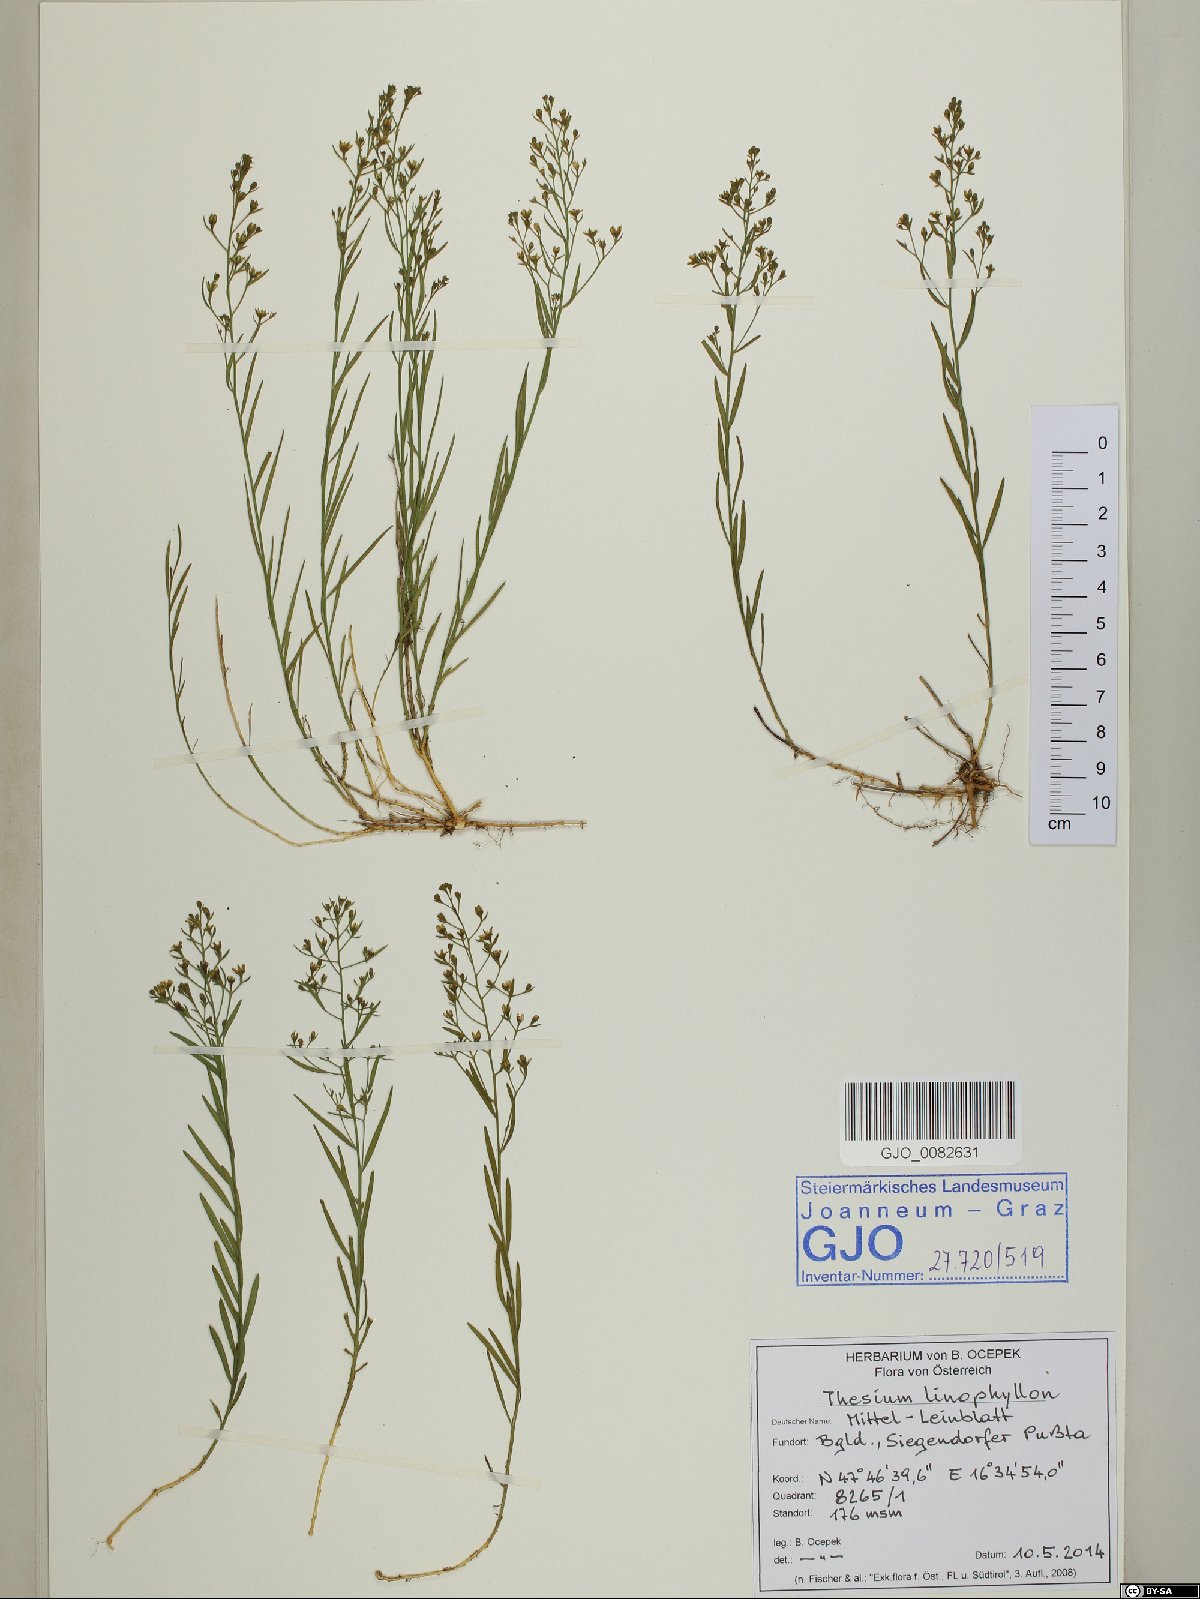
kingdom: Plantae
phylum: Tracheophyta
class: Magnoliopsida
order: Santalales
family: Thesiaceae
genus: Thesium
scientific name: Thesium linophyllon
